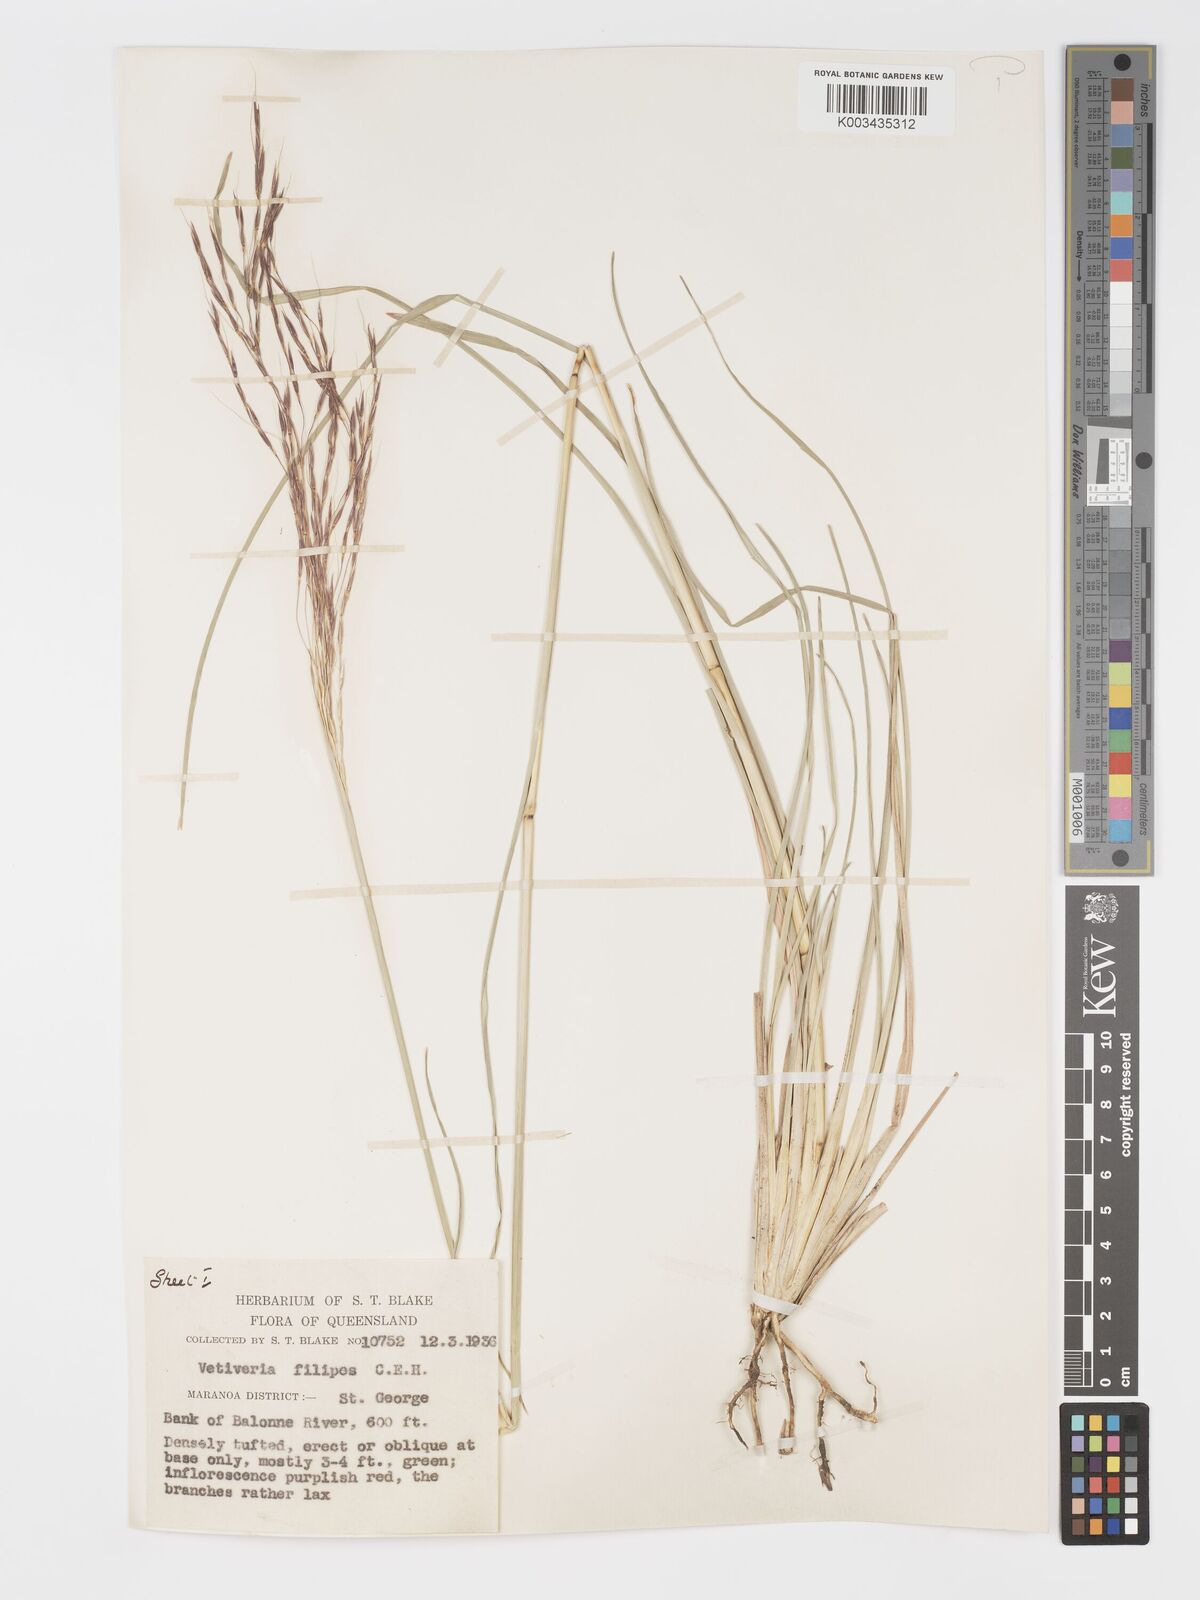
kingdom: Plantae
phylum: Tracheophyta
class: Liliopsida
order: Poales
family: Poaceae
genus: Chrysopogon
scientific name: Chrysopogon filipes
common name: Australian vetiver
